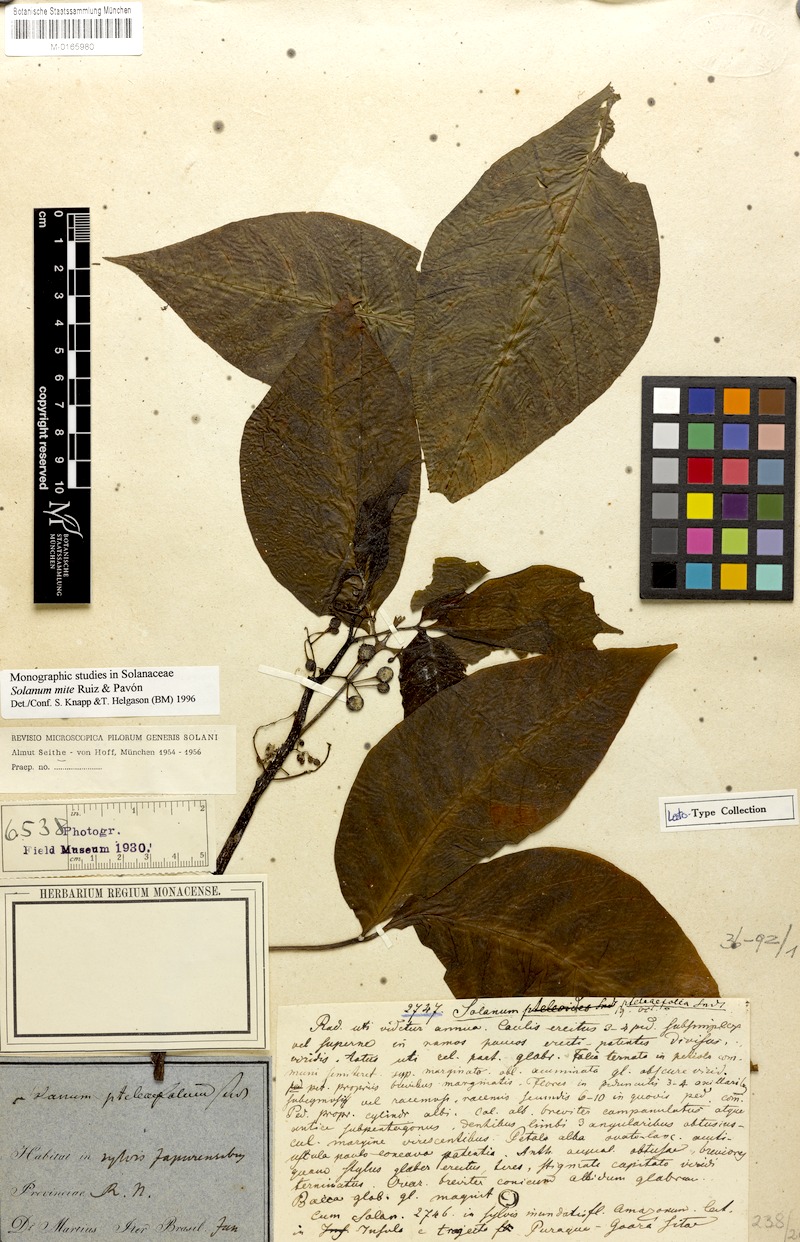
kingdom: Plantae
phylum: Tracheophyta
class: Magnoliopsida
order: Solanales
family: Solanaceae
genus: Solanum
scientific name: Solanum mite
